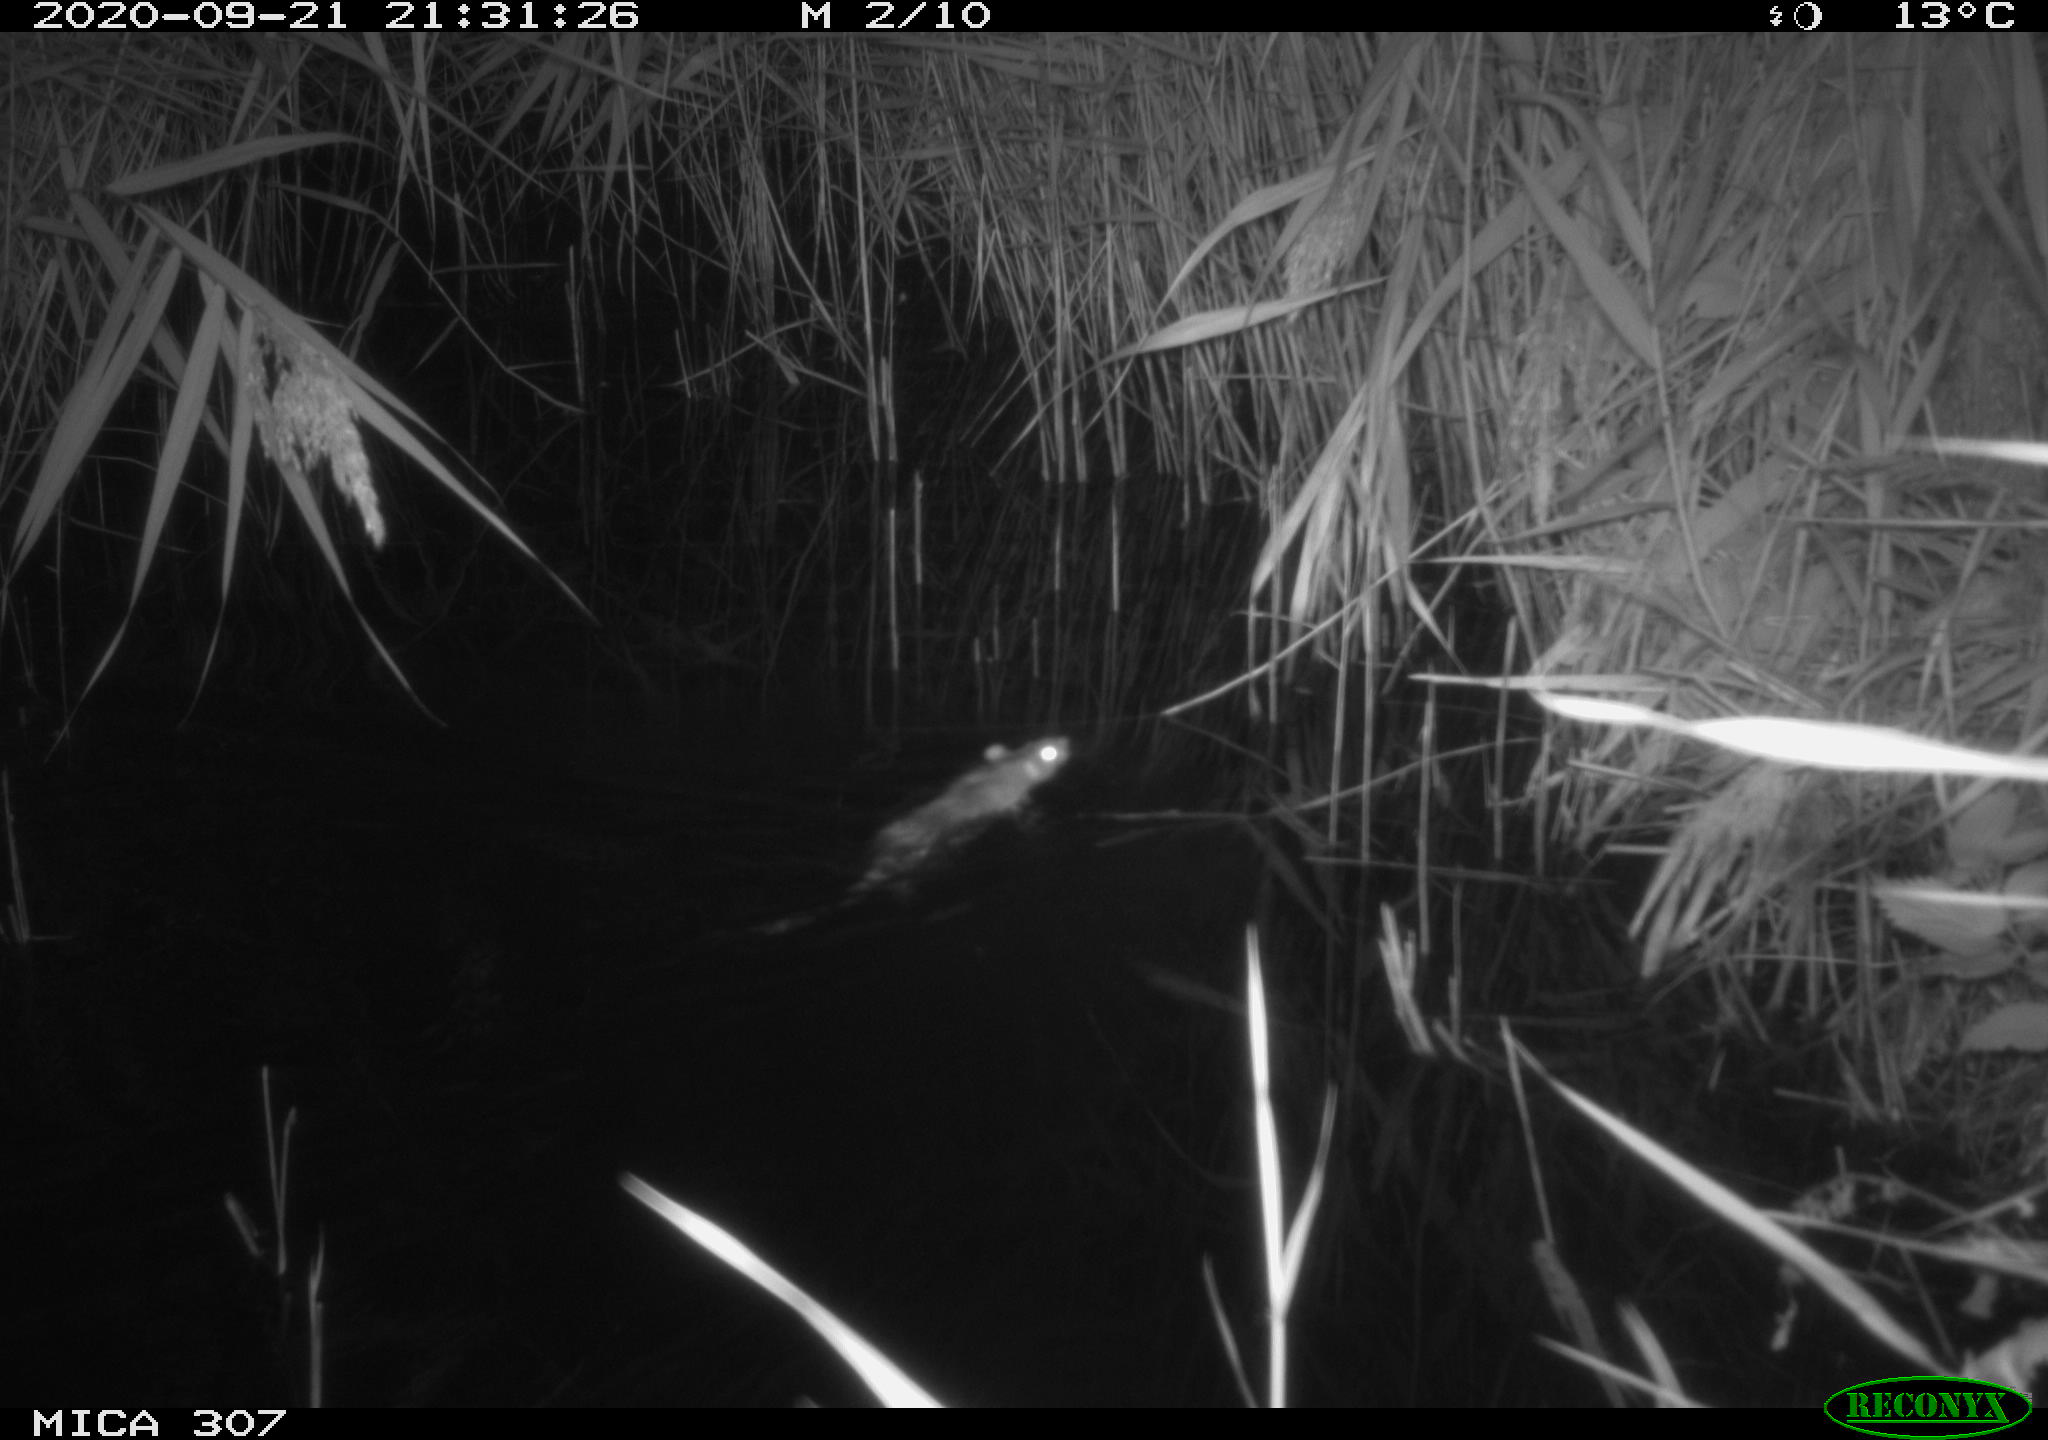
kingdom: Animalia
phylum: Chordata
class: Mammalia
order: Rodentia
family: Muridae
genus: Rattus
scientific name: Rattus norvegicus
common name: Brown rat
